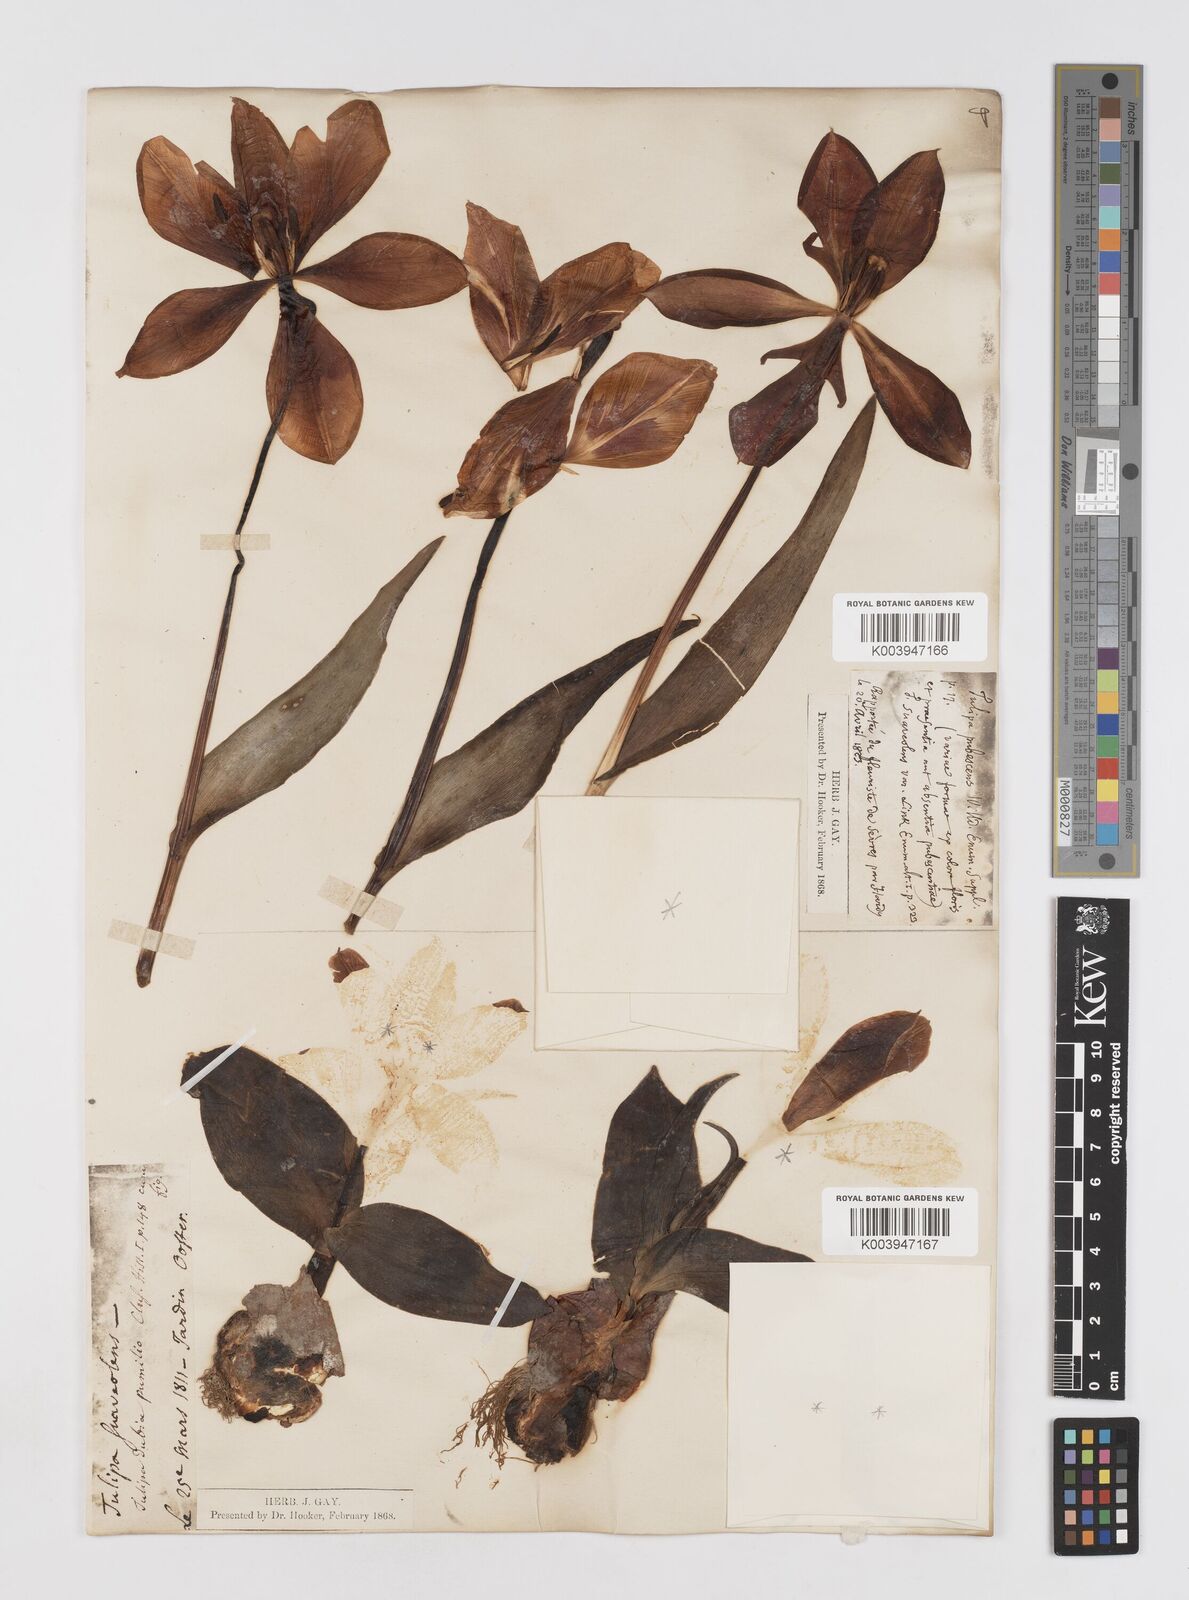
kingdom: Plantae
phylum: Tracheophyta
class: Liliopsida
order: Liliales
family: Liliaceae
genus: Tulipa
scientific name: Tulipa gesneriana
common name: Garden tulip
